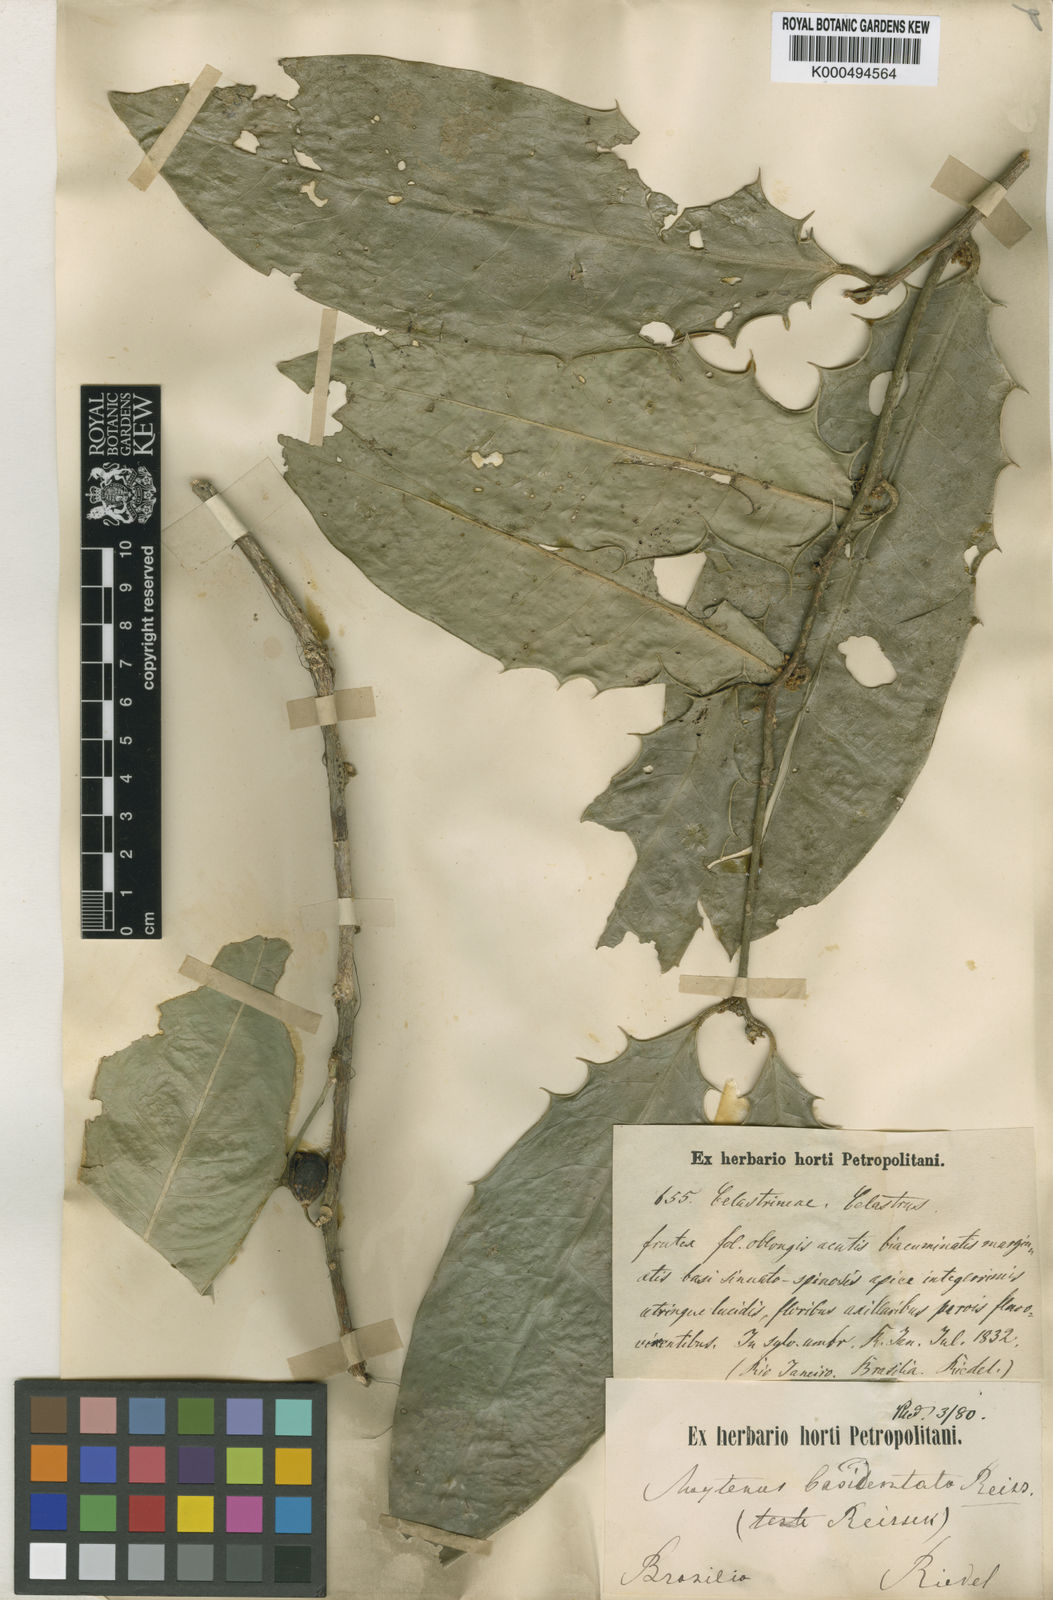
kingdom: Plantae
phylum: Tracheophyta
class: Magnoliopsida
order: Celastrales
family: Celastraceae
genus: Monteverdia
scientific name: Monteverdia basidentata
